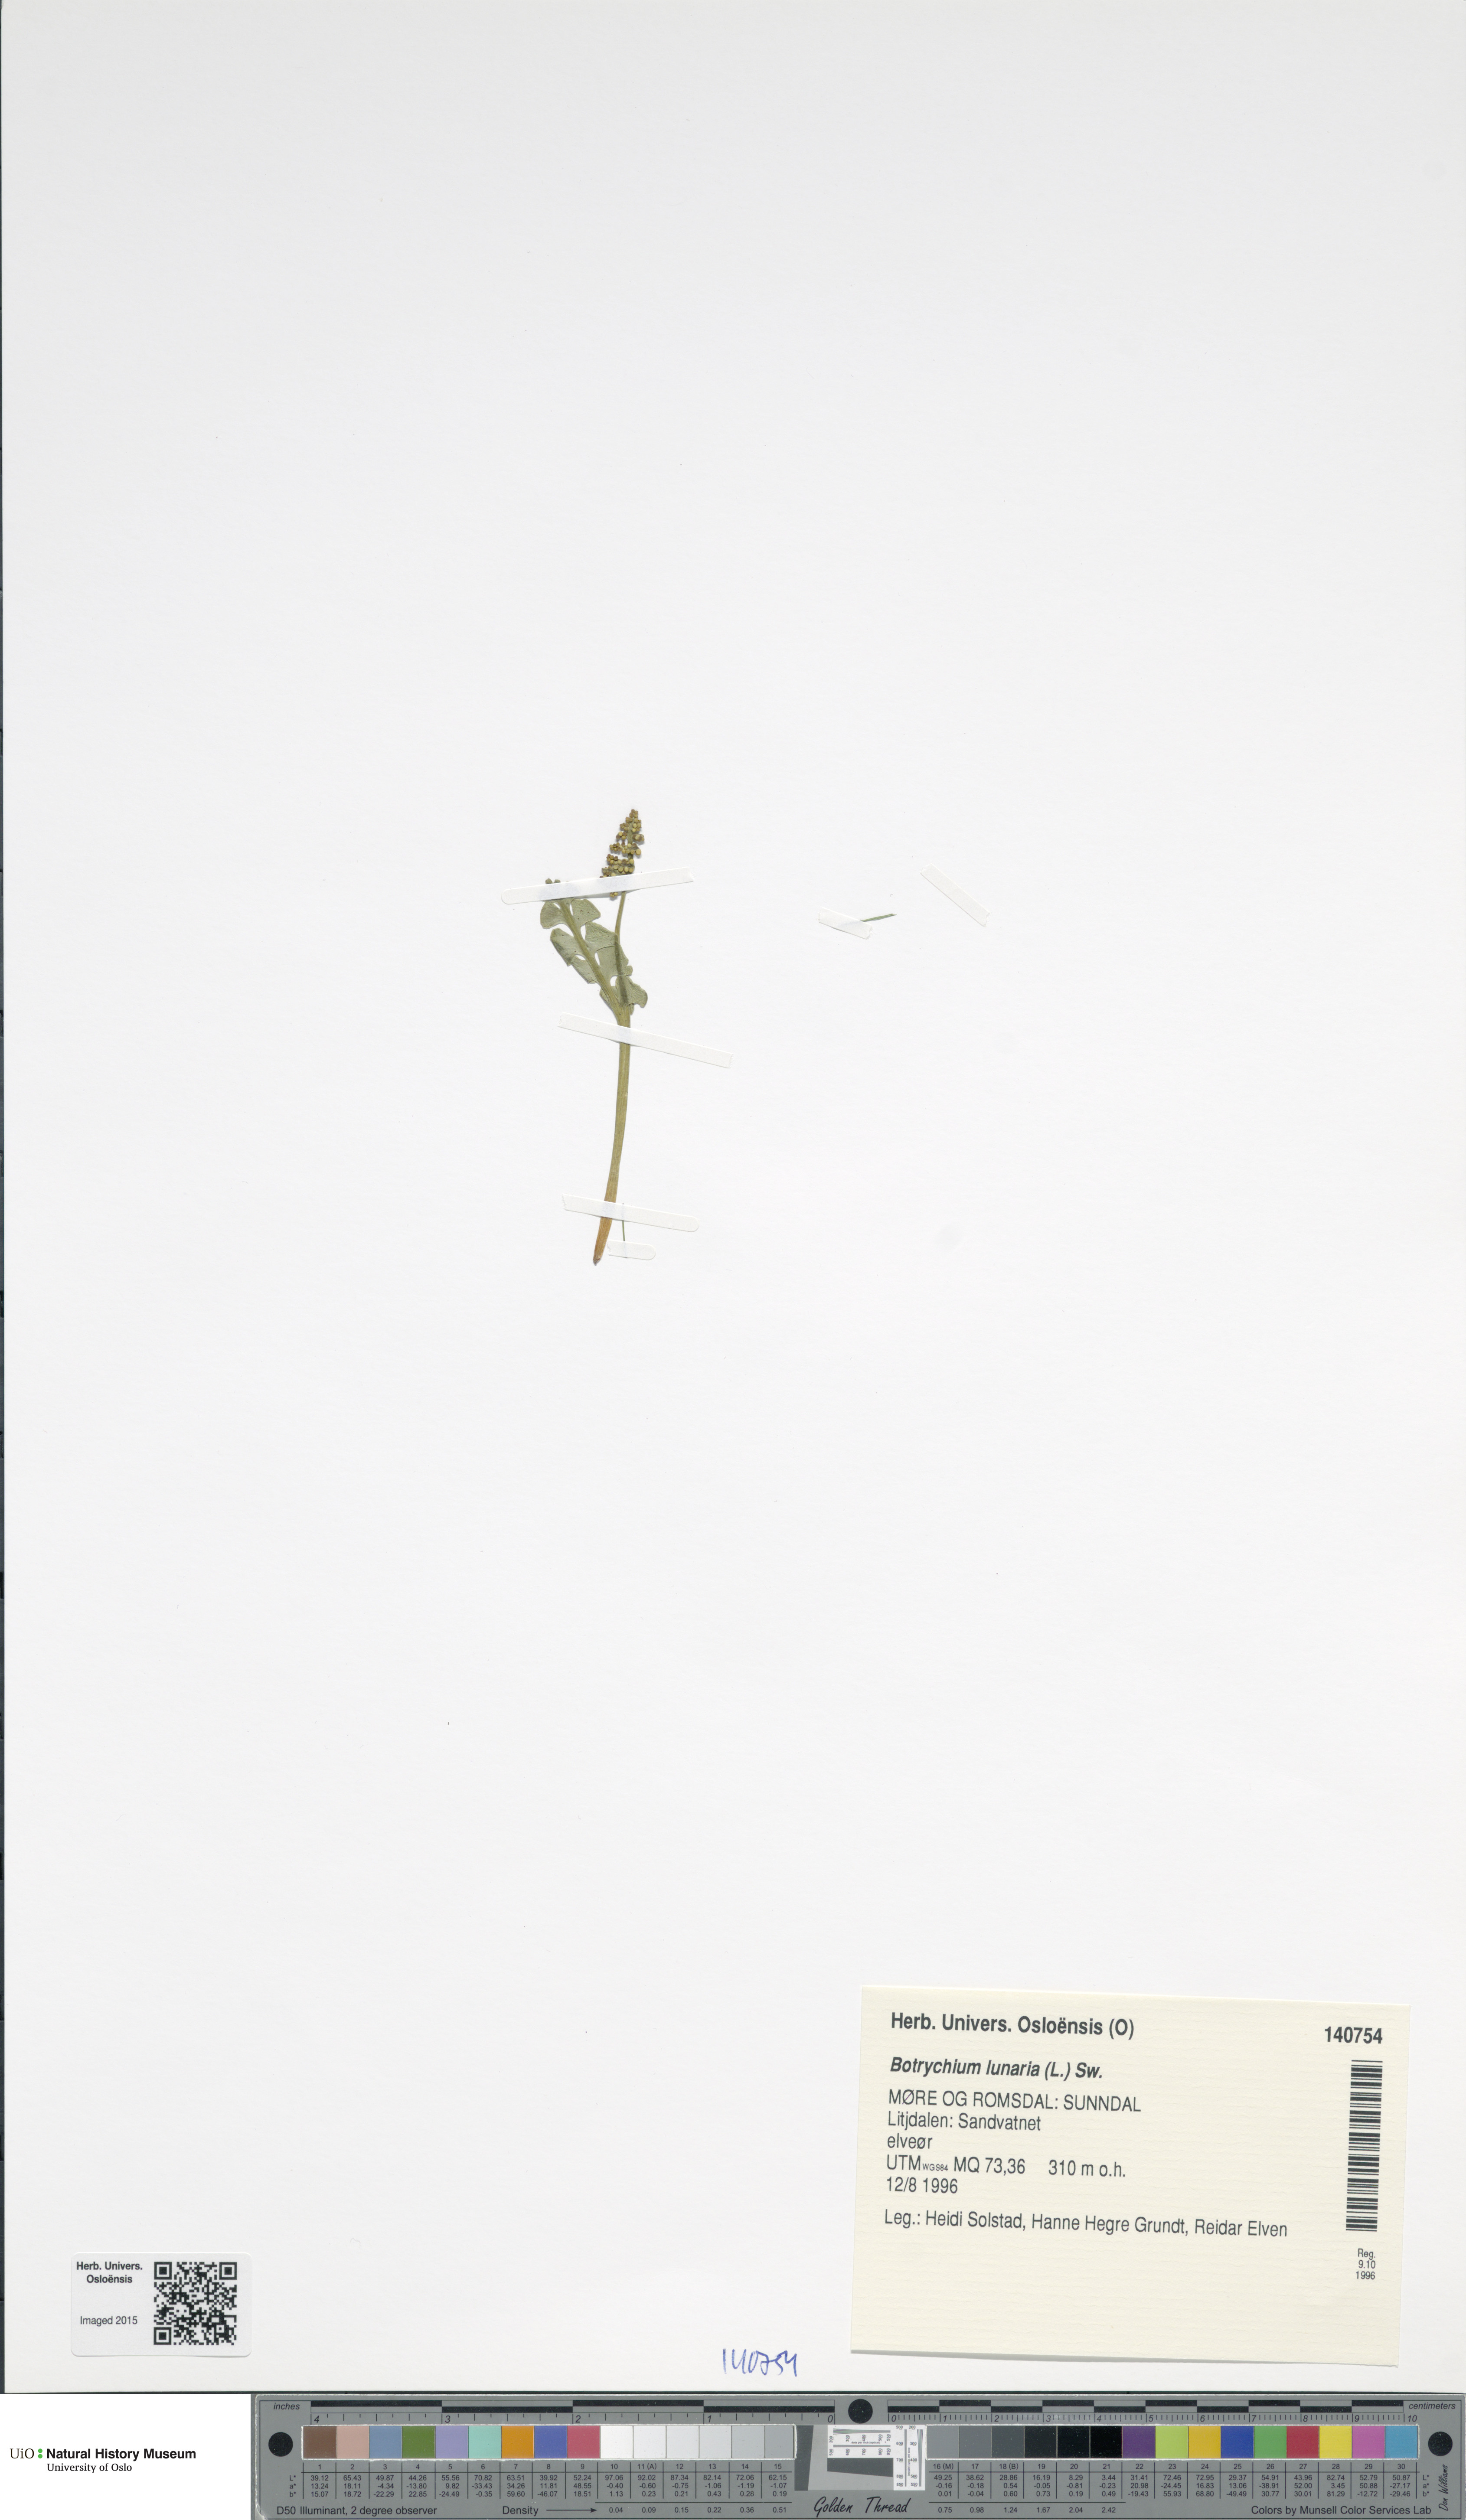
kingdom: Plantae
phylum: Tracheophyta
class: Polypodiopsida
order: Ophioglossales
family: Ophioglossaceae
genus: Botrychium
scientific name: Botrychium lunaria
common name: Moonwort
